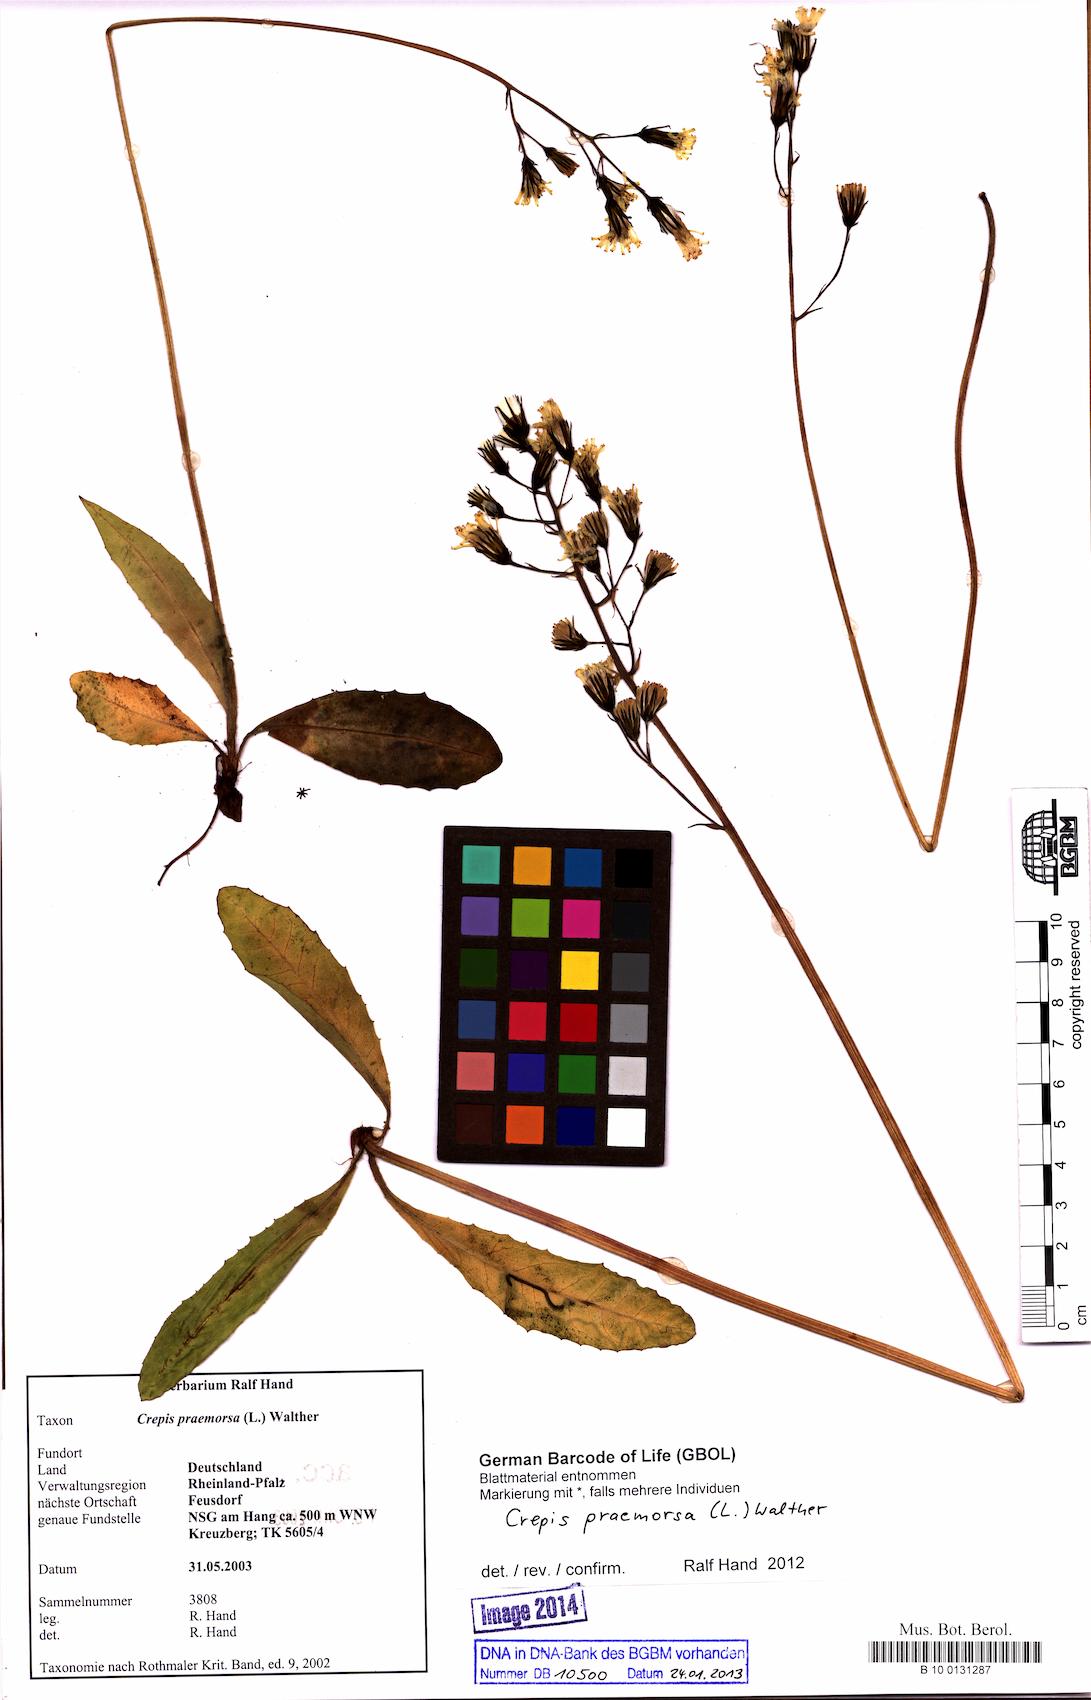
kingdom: Plantae
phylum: Tracheophyta
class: Magnoliopsida
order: Asterales
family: Asteraceae
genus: Crepis
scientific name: Crepis praemorsa
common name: Leafless hawk's-beard
